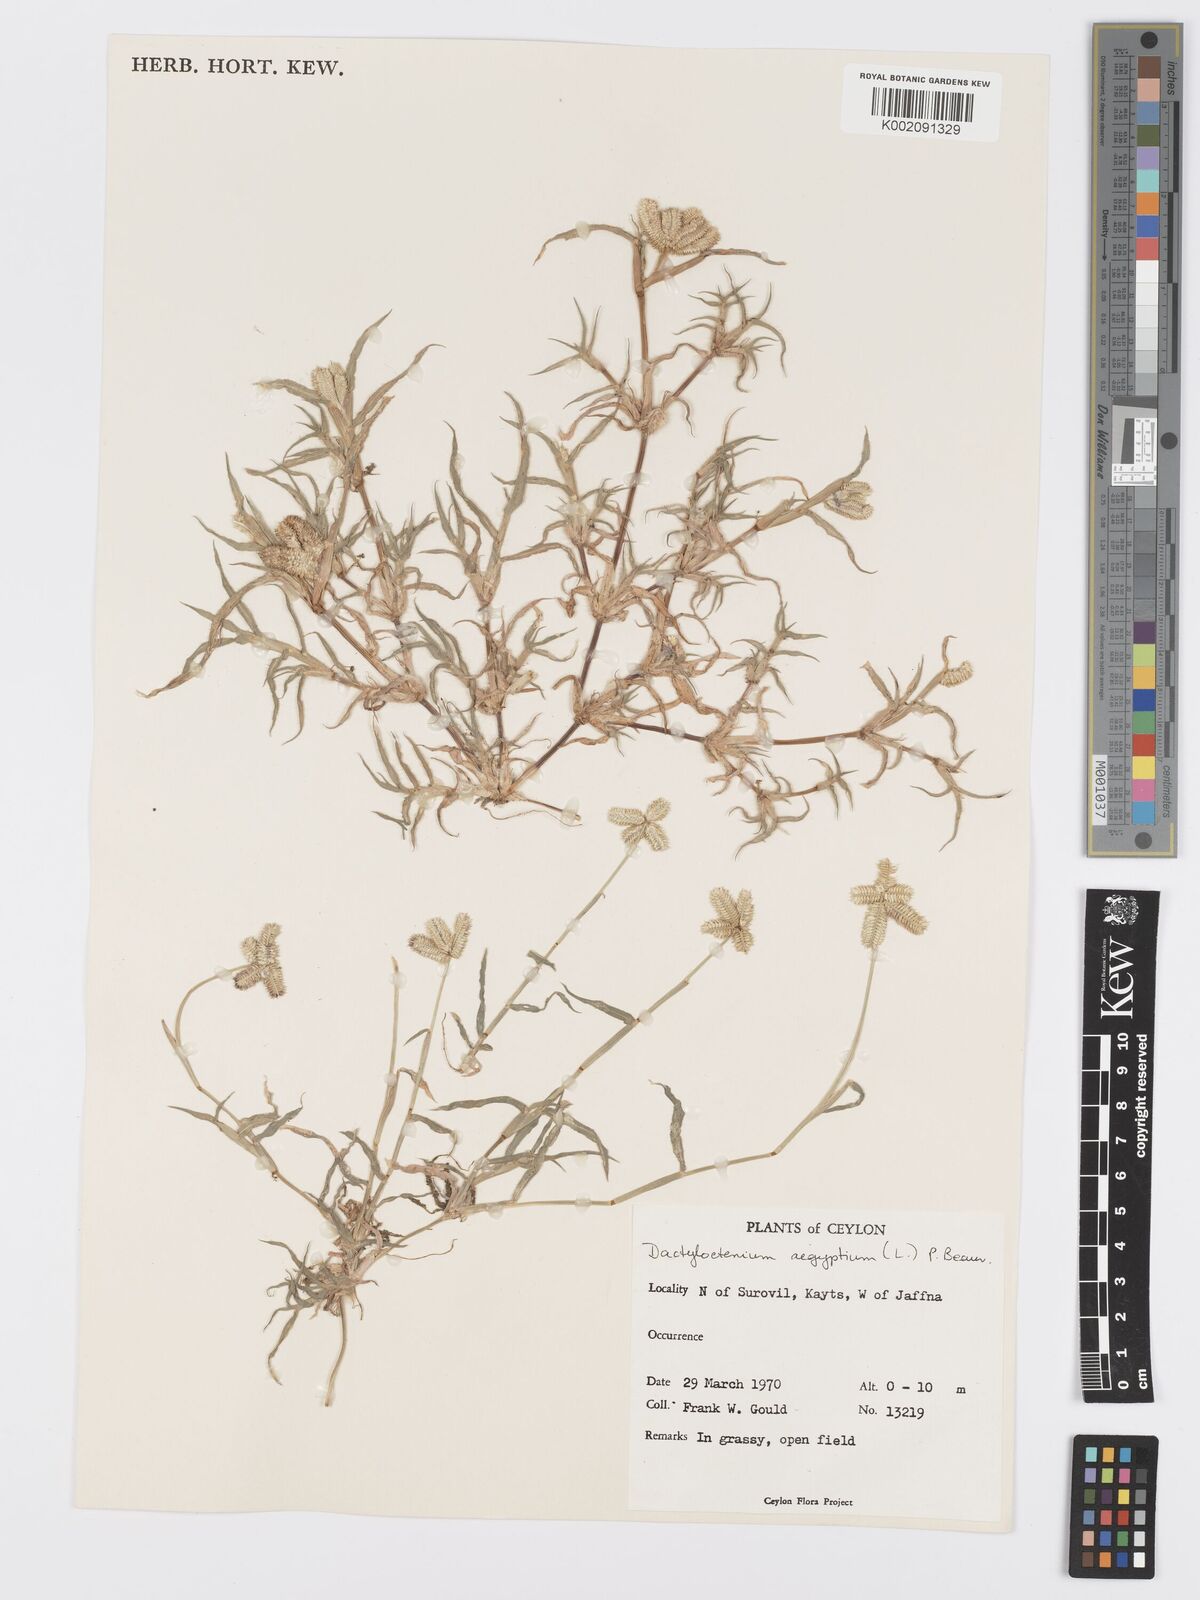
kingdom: Plantae
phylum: Tracheophyta
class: Liliopsida
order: Poales
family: Poaceae
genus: Dactyloctenium
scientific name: Dactyloctenium aegyptium
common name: Egyptian grass
